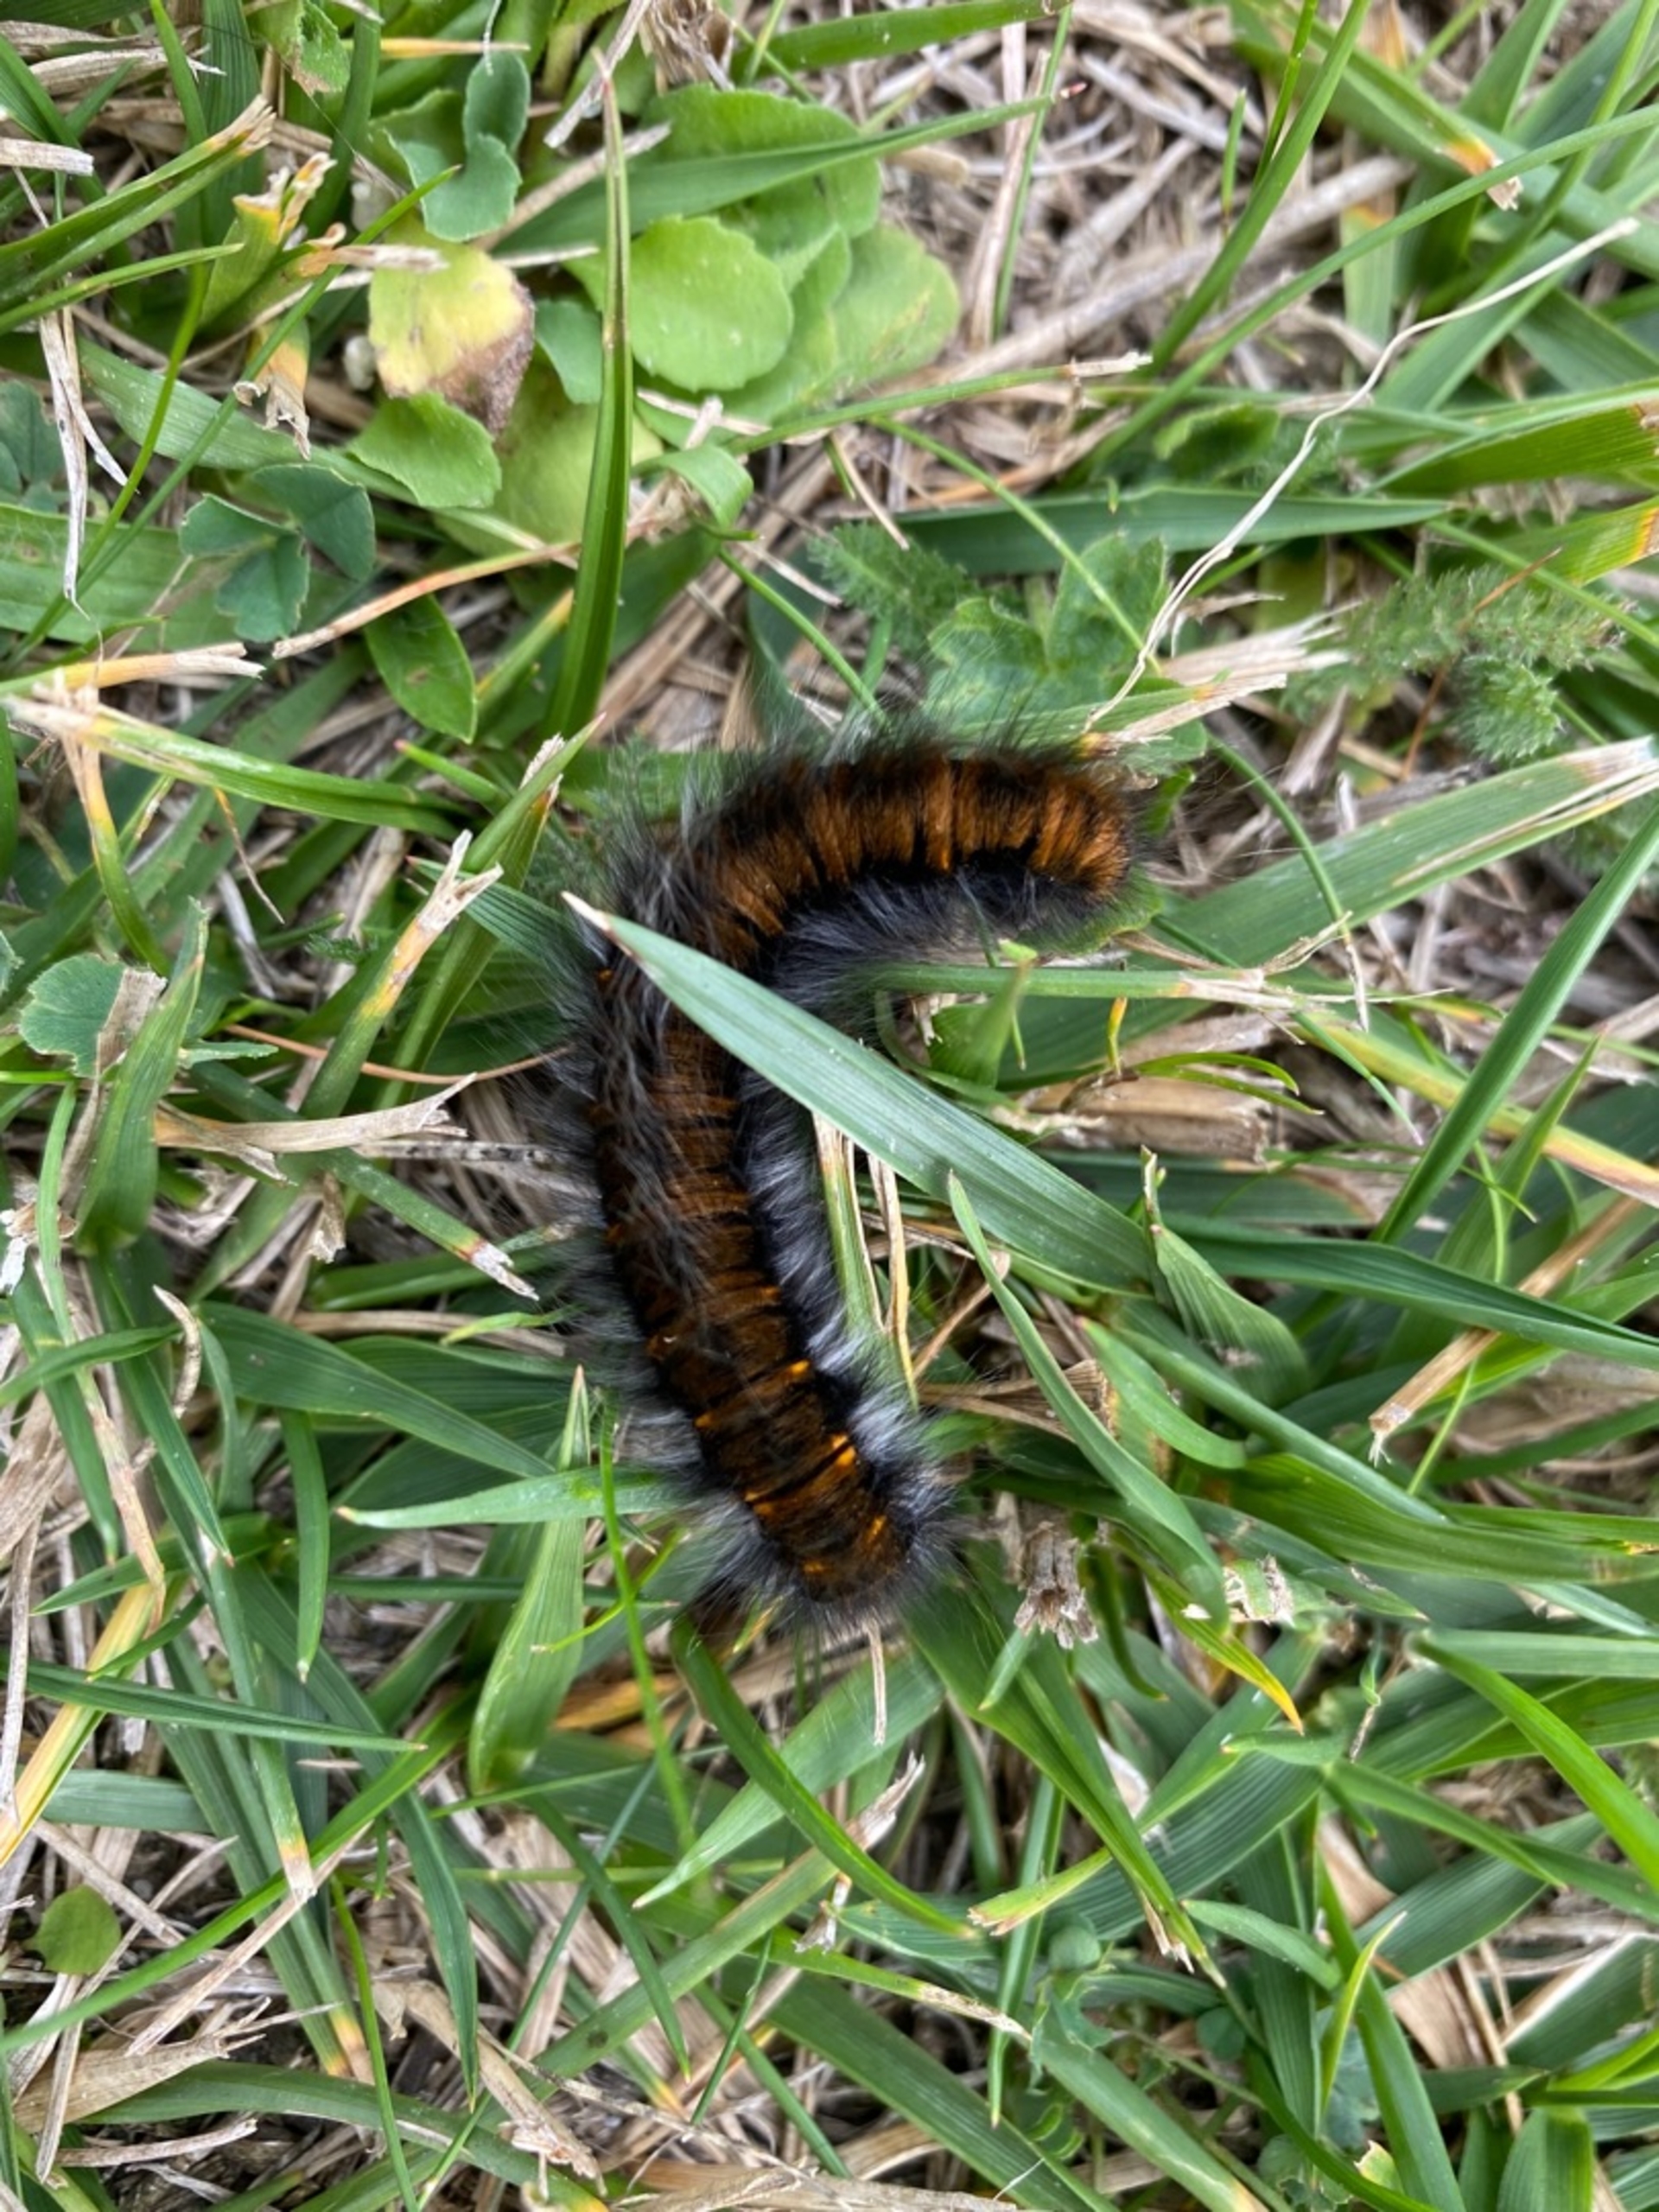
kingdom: Animalia
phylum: Arthropoda
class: Insecta
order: Lepidoptera
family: Lasiocampidae
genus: Macrothylacia
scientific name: Macrothylacia rubi
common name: Brombærspinder
